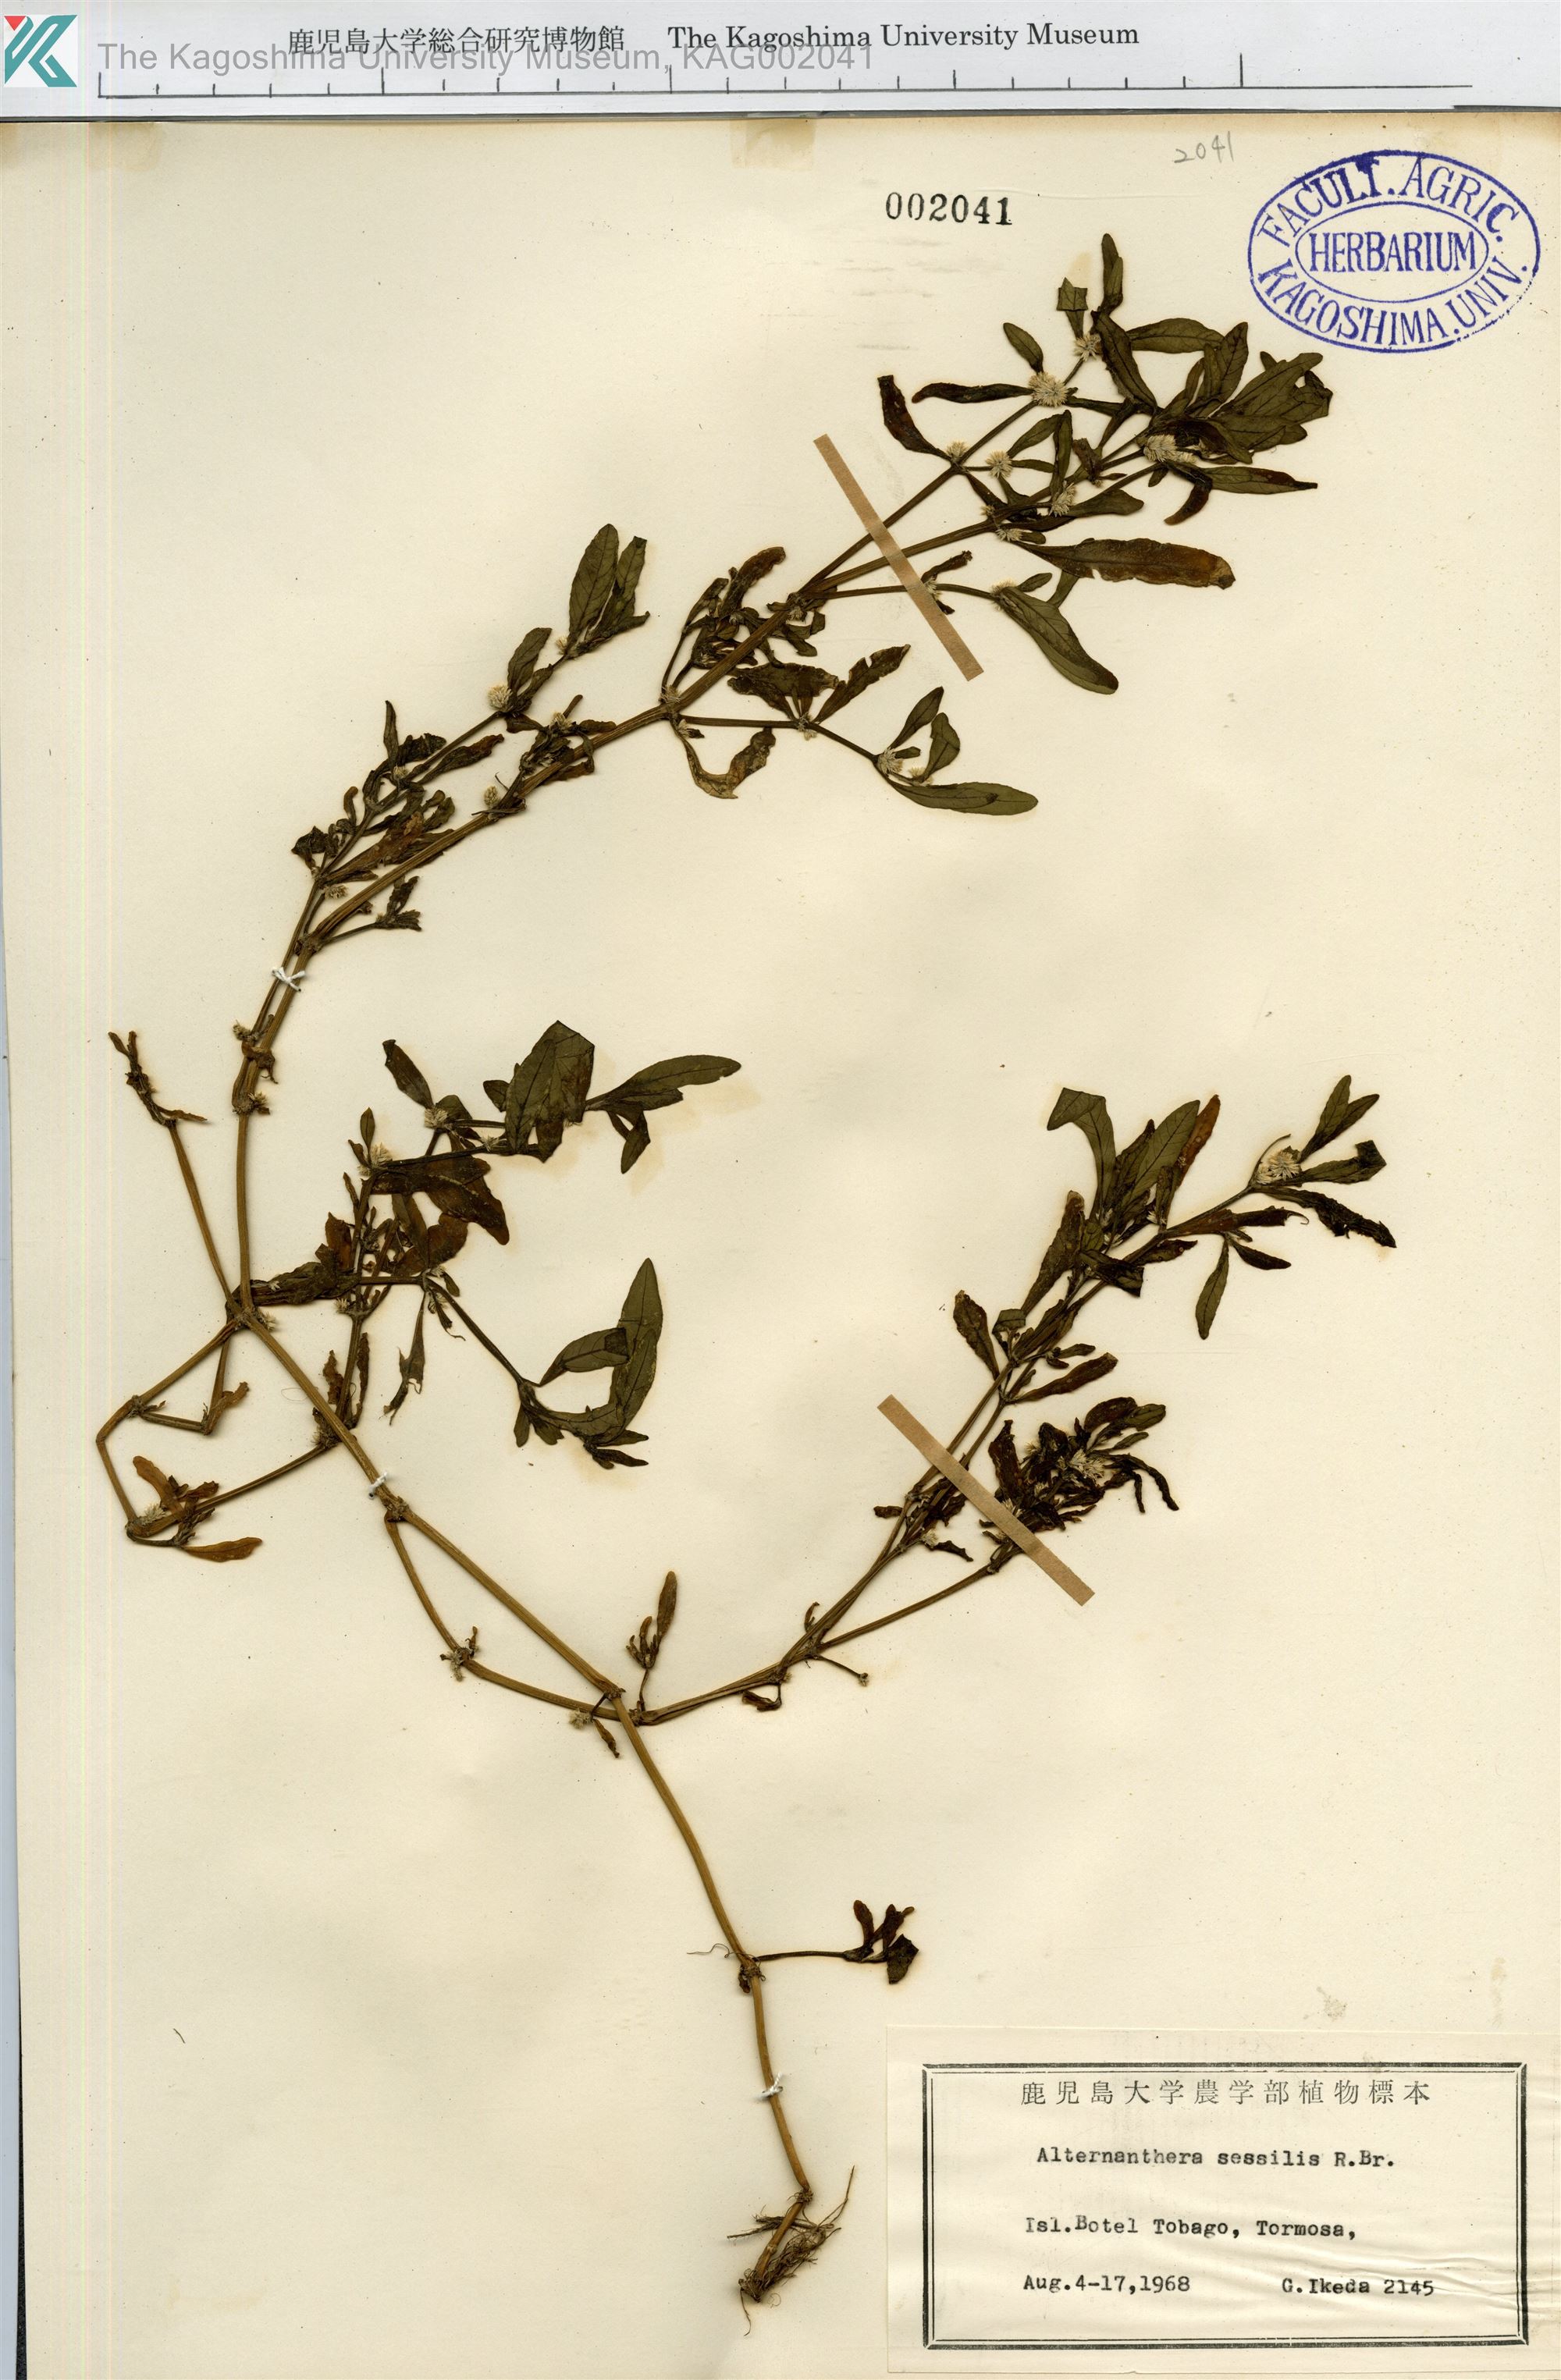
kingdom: Plantae
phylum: Tracheophyta
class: Magnoliopsida
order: Caryophyllales
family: Amaranthaceae
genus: Alternanthera
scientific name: Alternanthera sessilis
